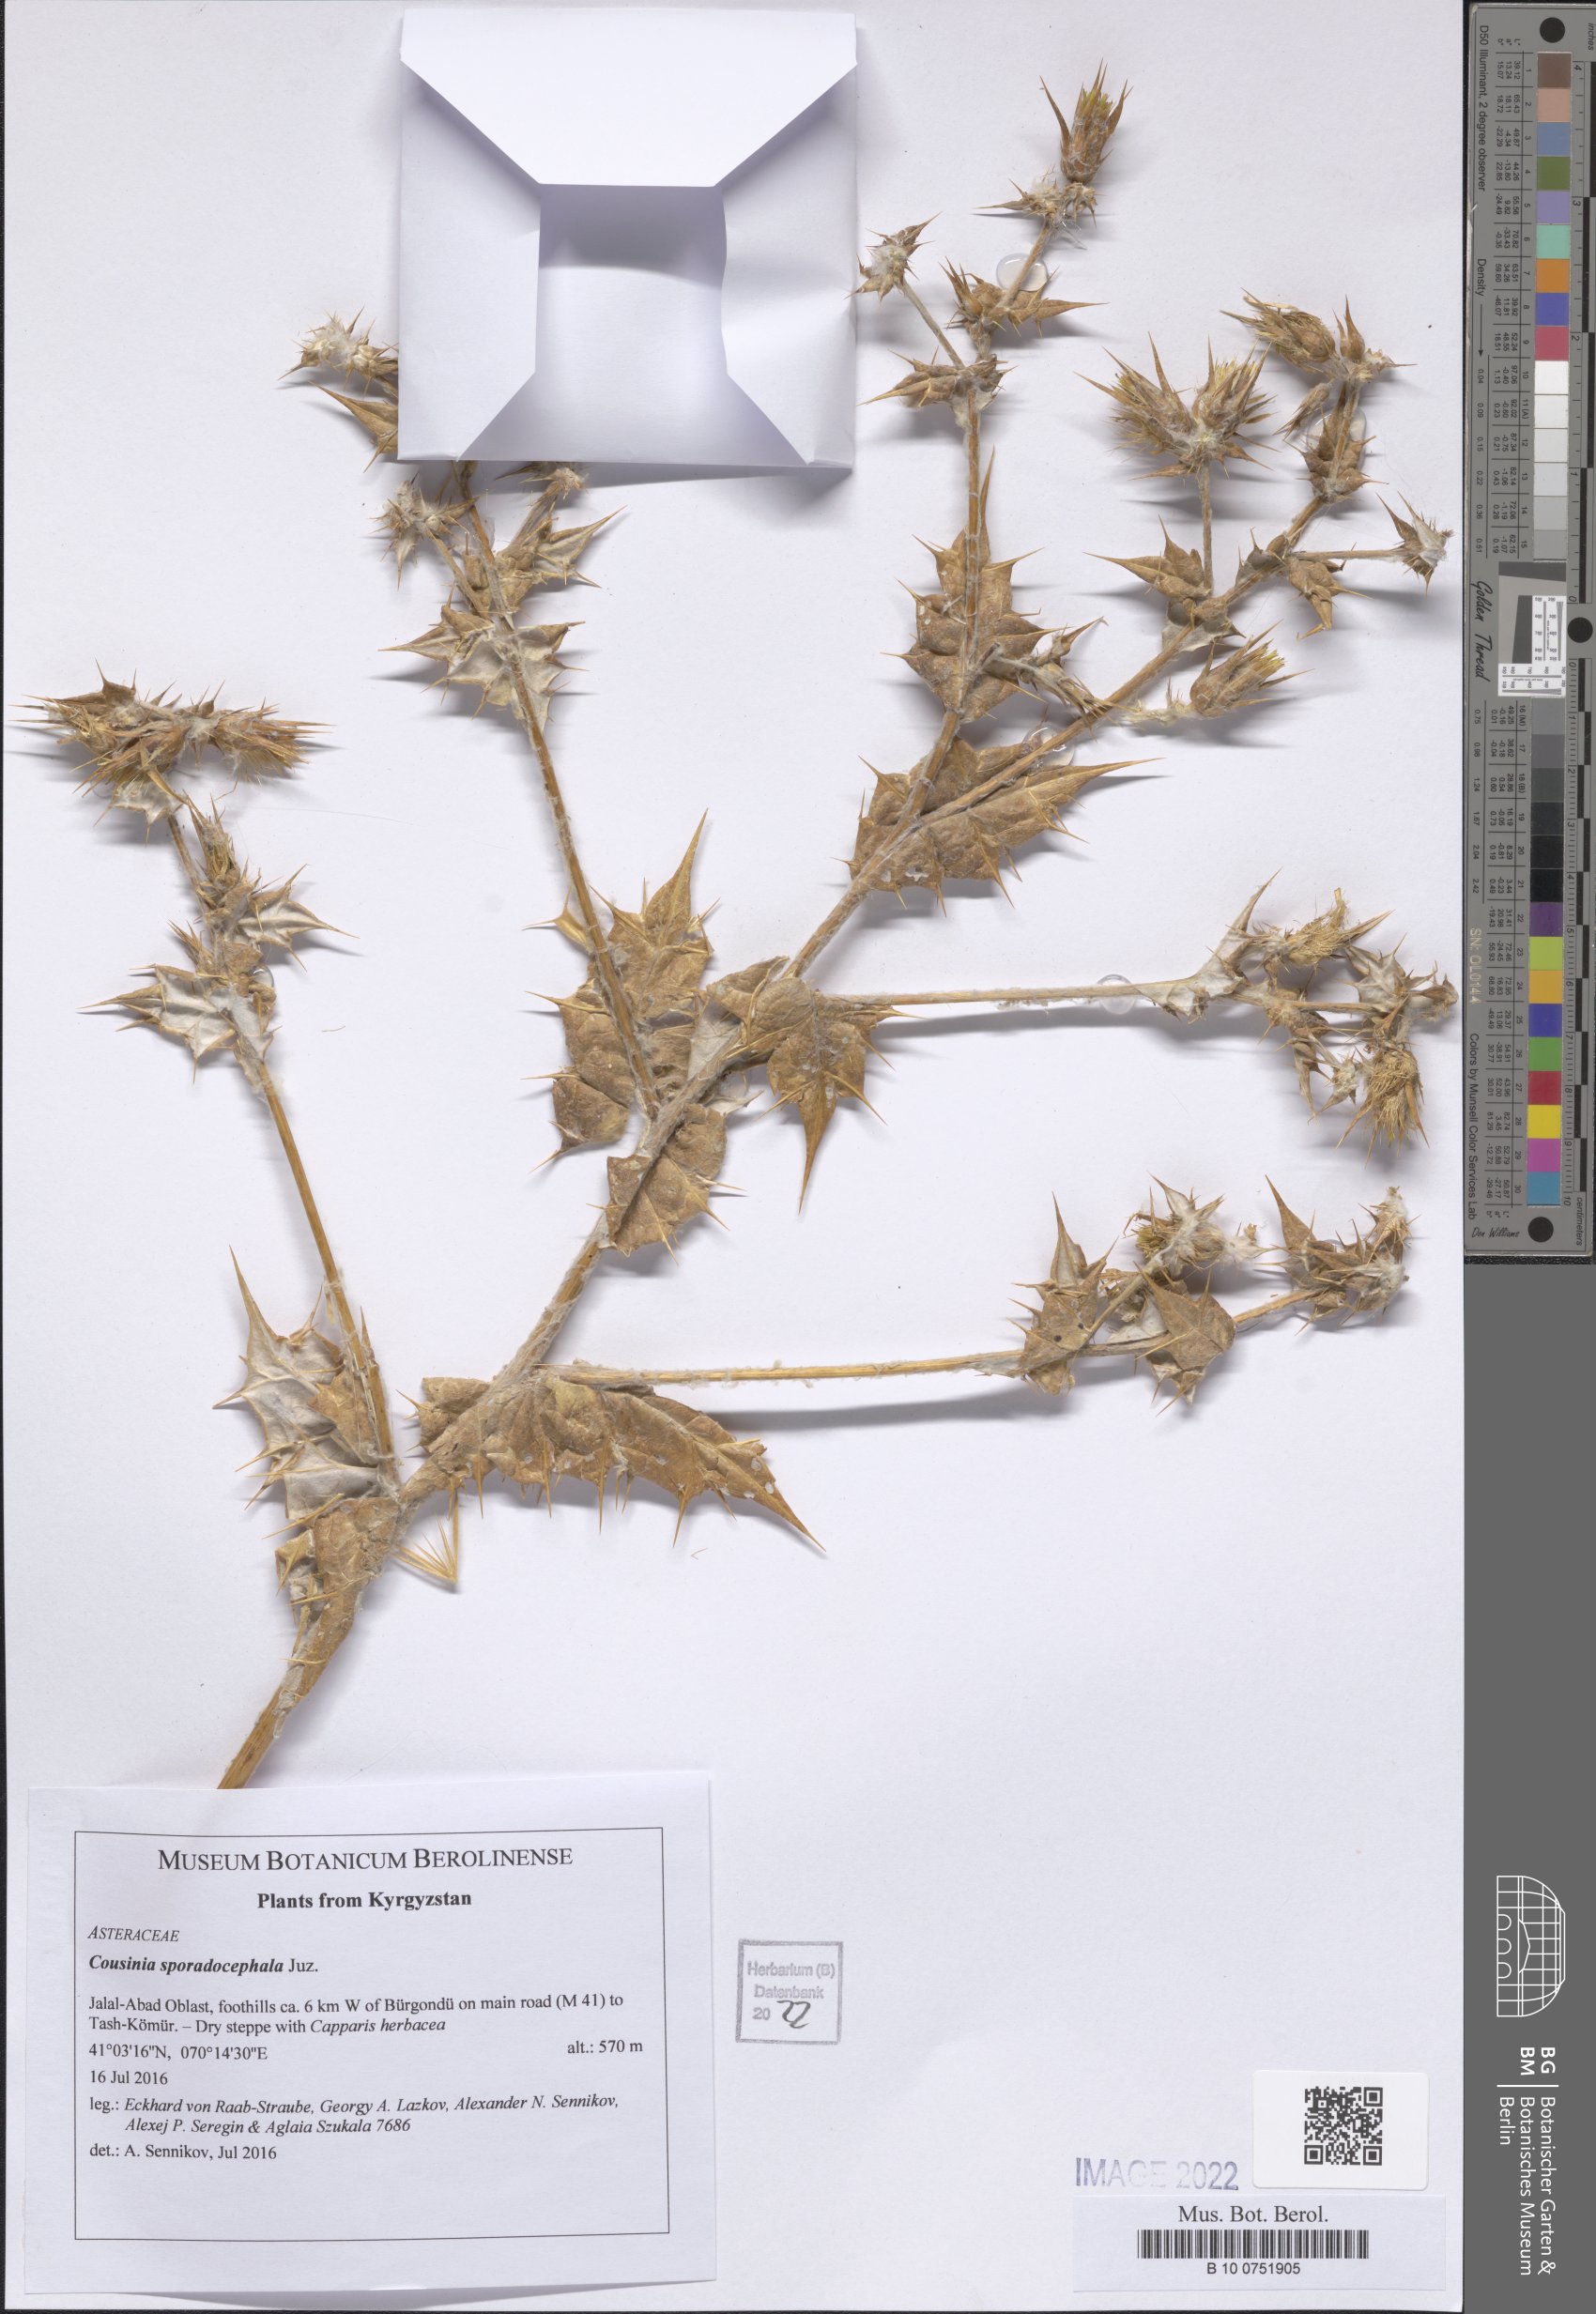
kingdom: Plantae
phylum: Tracheophyta
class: Magnoliopsida
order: Asterales
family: Asteraceae
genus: Cousinia
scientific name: Cousinia sporadocephala
